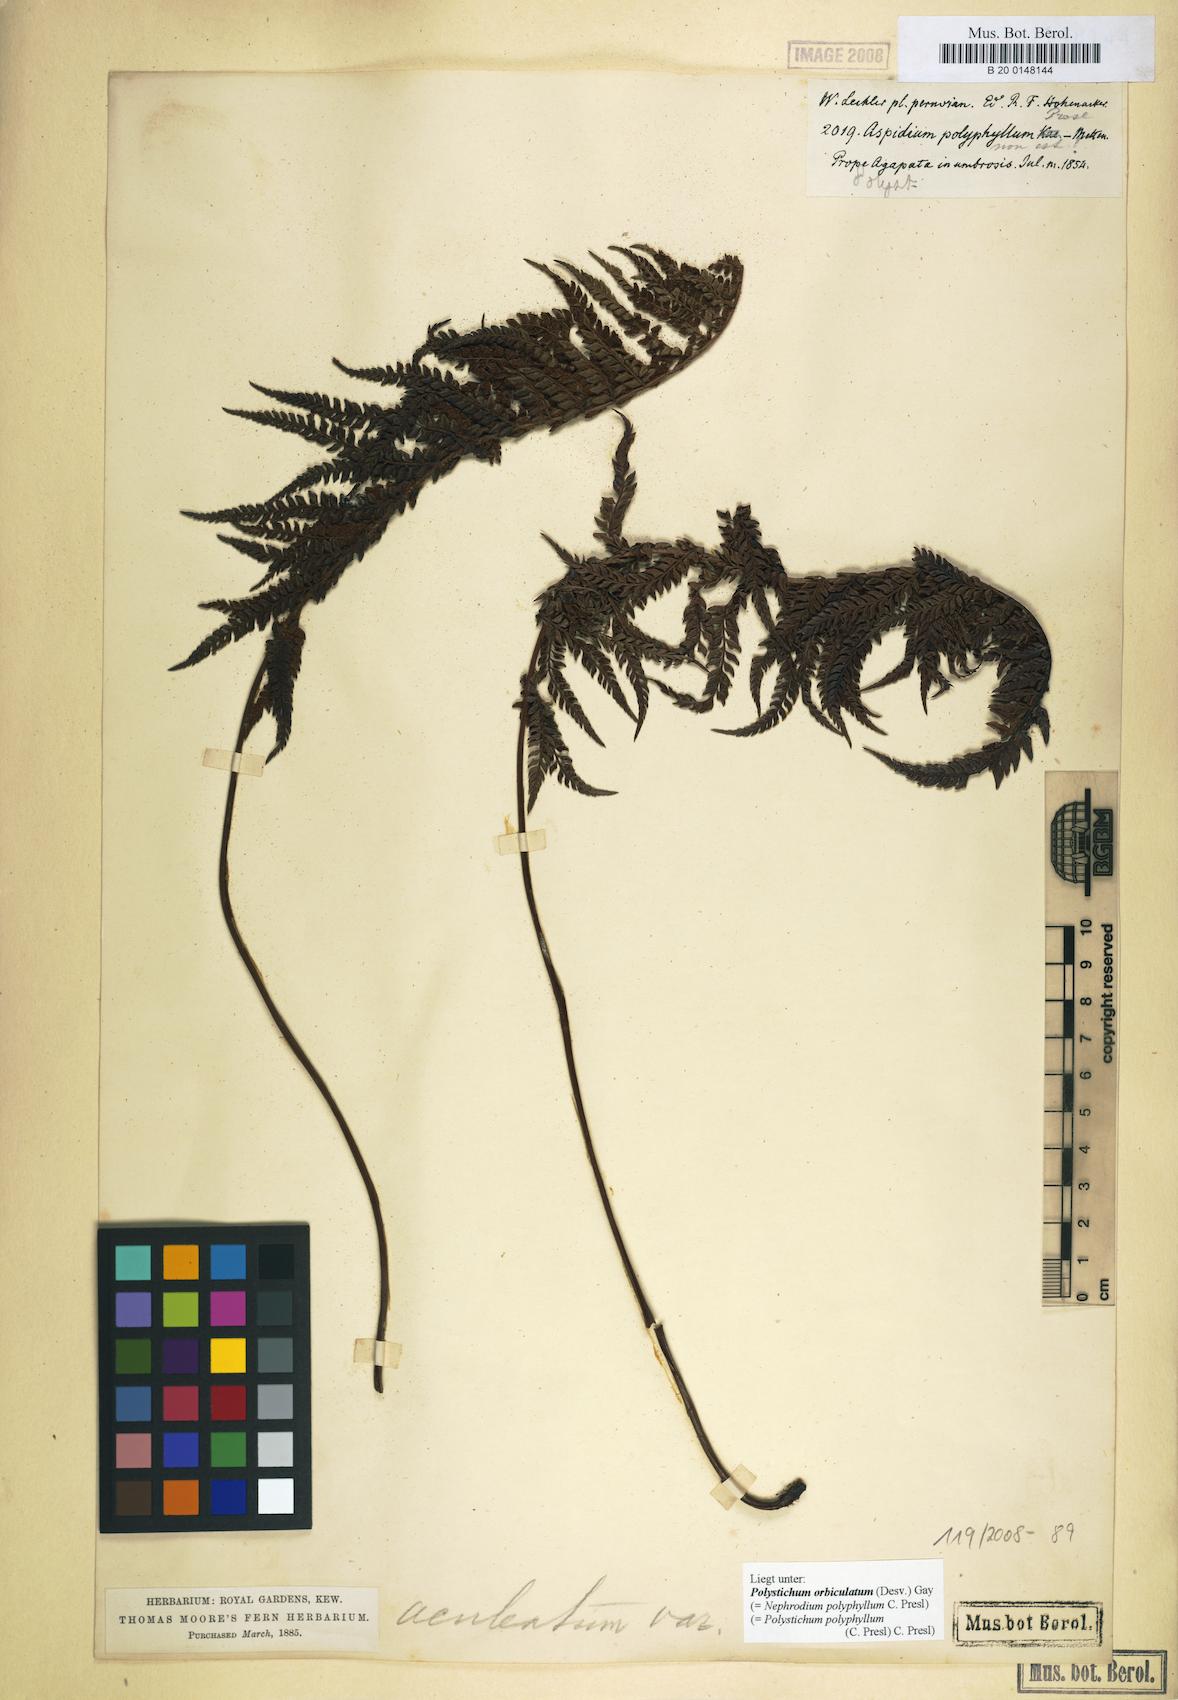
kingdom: Plantae
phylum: Tracheophyta
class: Polypodiopsida
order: Polypodiales
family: Dryopteridaceae
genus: Polystichum
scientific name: Polystichum orbiculatum
